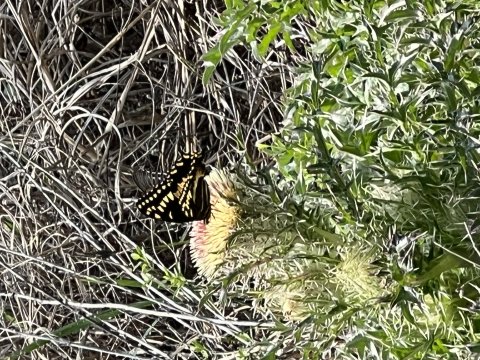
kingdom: Animalia
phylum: Arthropoda
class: Insecta
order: Lepidoptera
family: Papilionidae
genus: Pterourus
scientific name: Pterourus palamedes
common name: Palamedes Swallowtail
